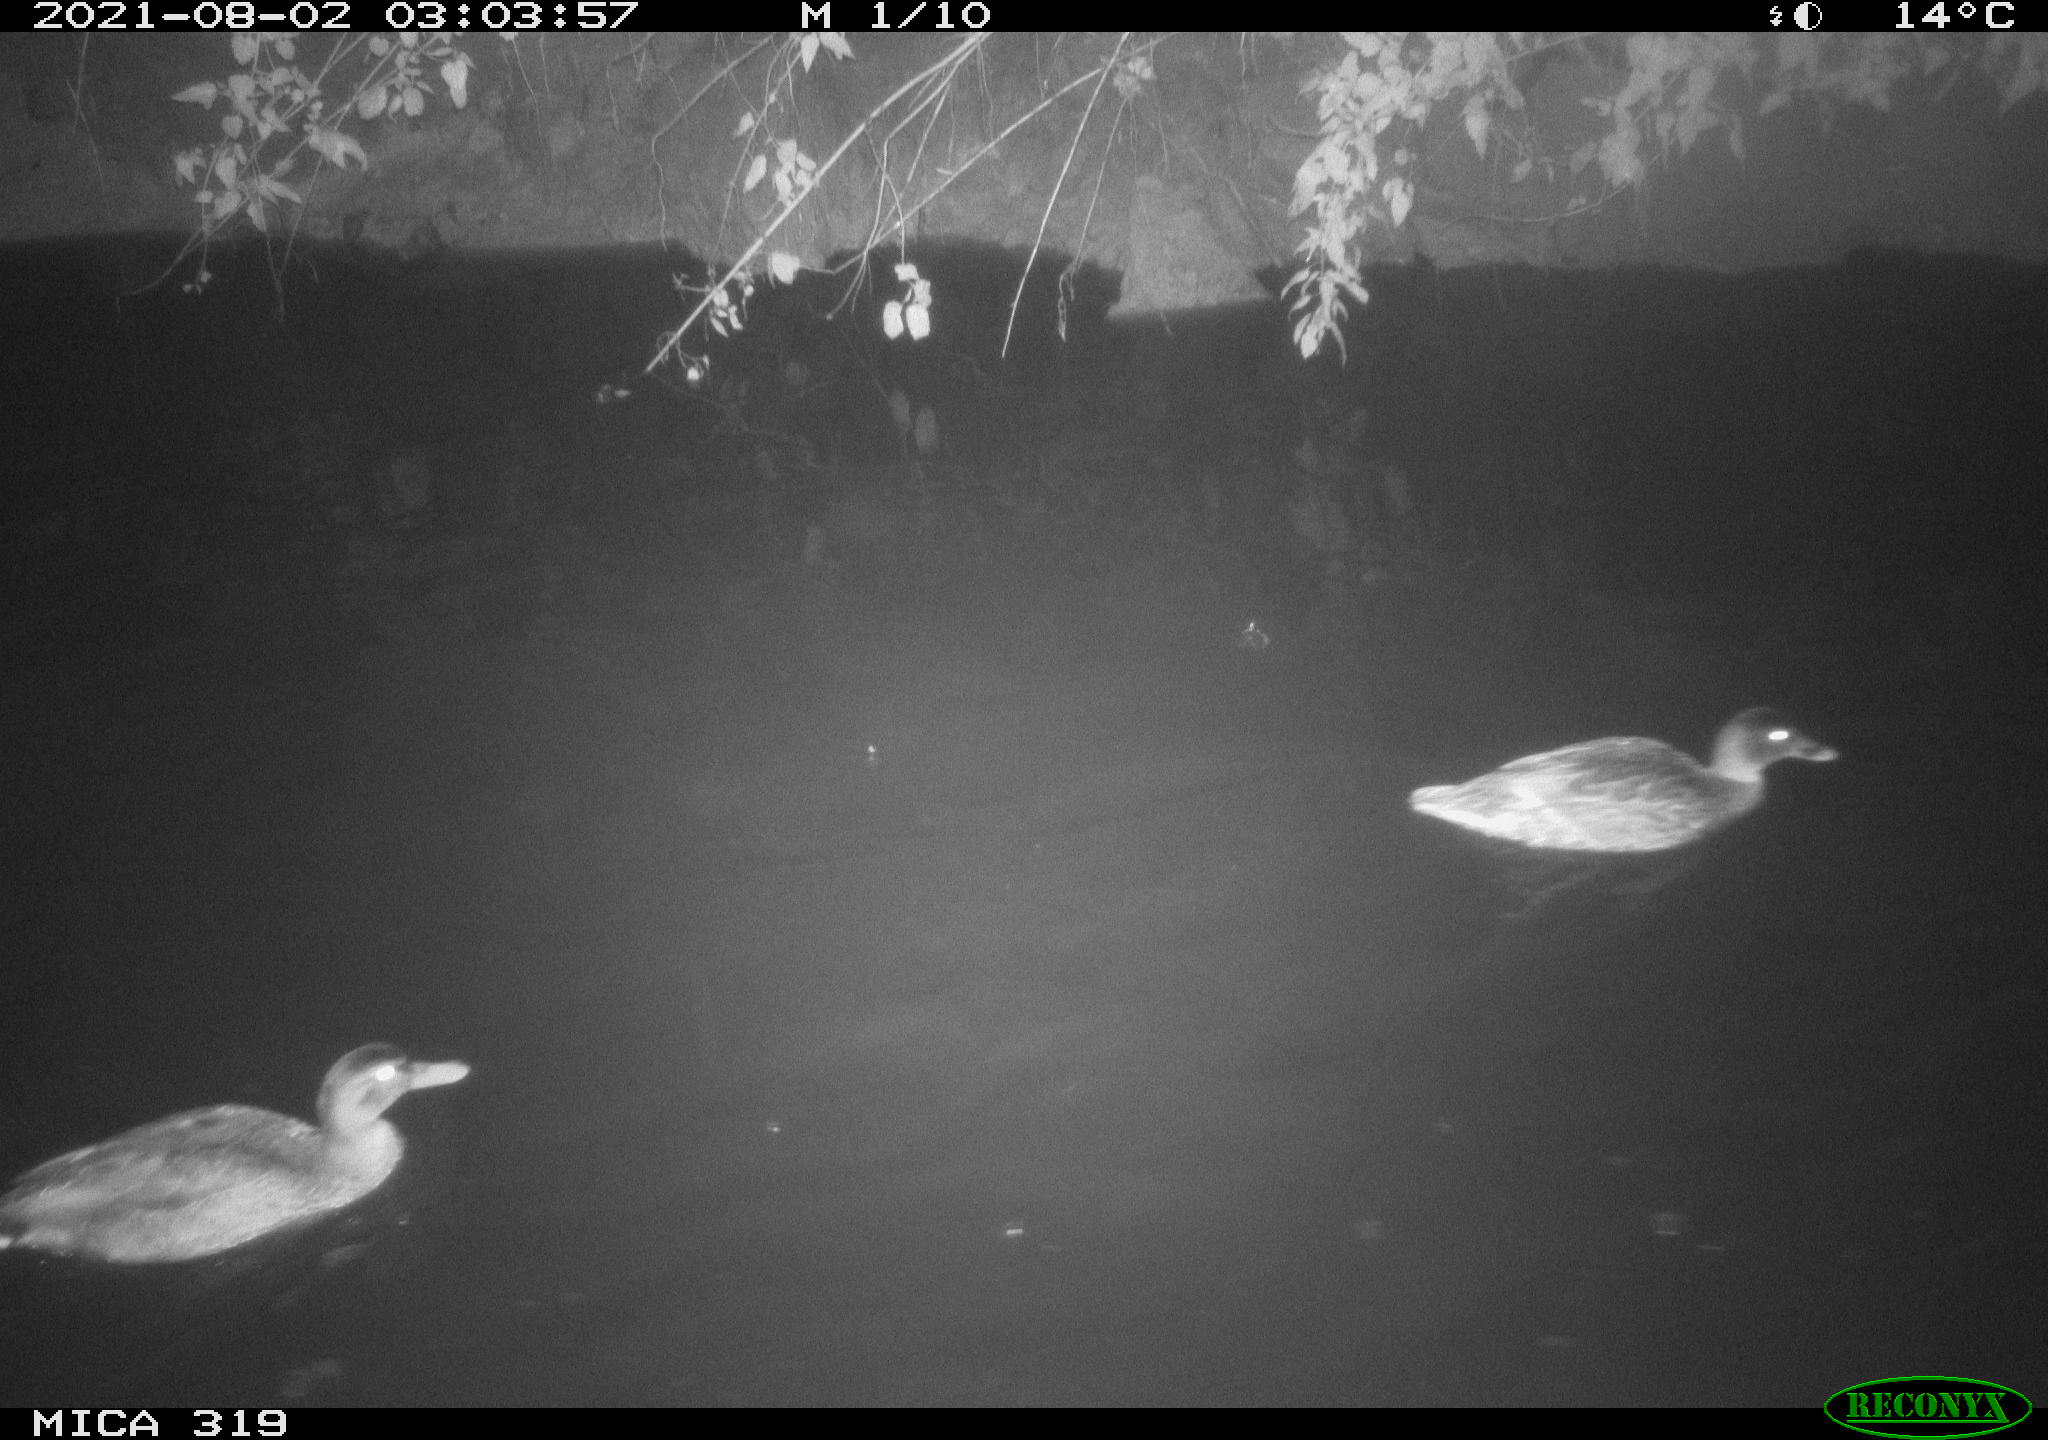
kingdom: Animalia
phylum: Chordata
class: Aves
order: Anseriformes
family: Anatidae
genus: Anas
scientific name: Anas platyrhynchos
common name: Mallard
